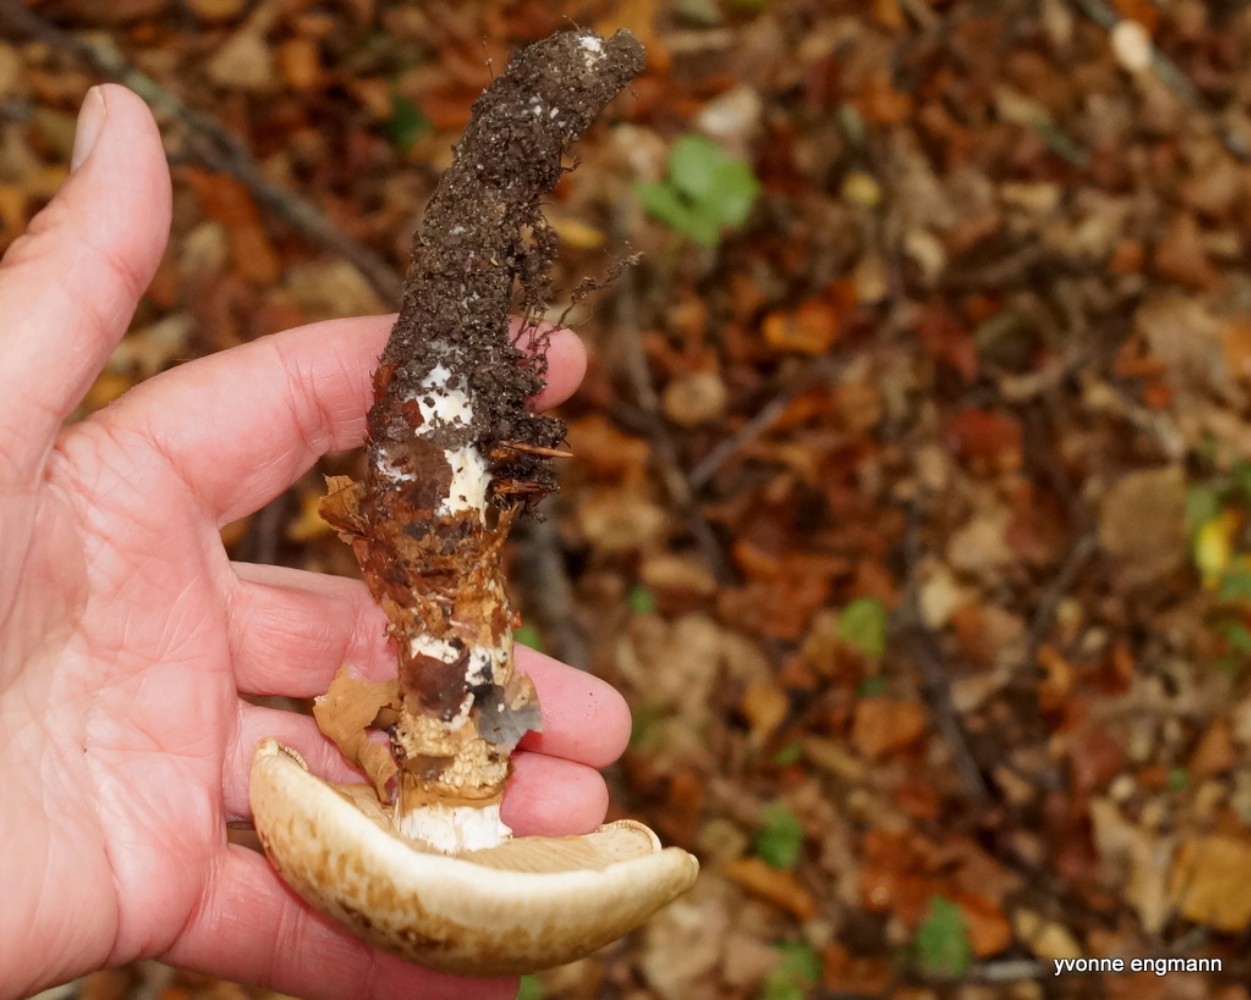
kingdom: Fungi
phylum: Basidiomycota
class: Agaricomycetes
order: Agaricales
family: Hymenogastraceae
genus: Hebeloma
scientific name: Hebeloma radicosum
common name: pælerods-tåreblad
